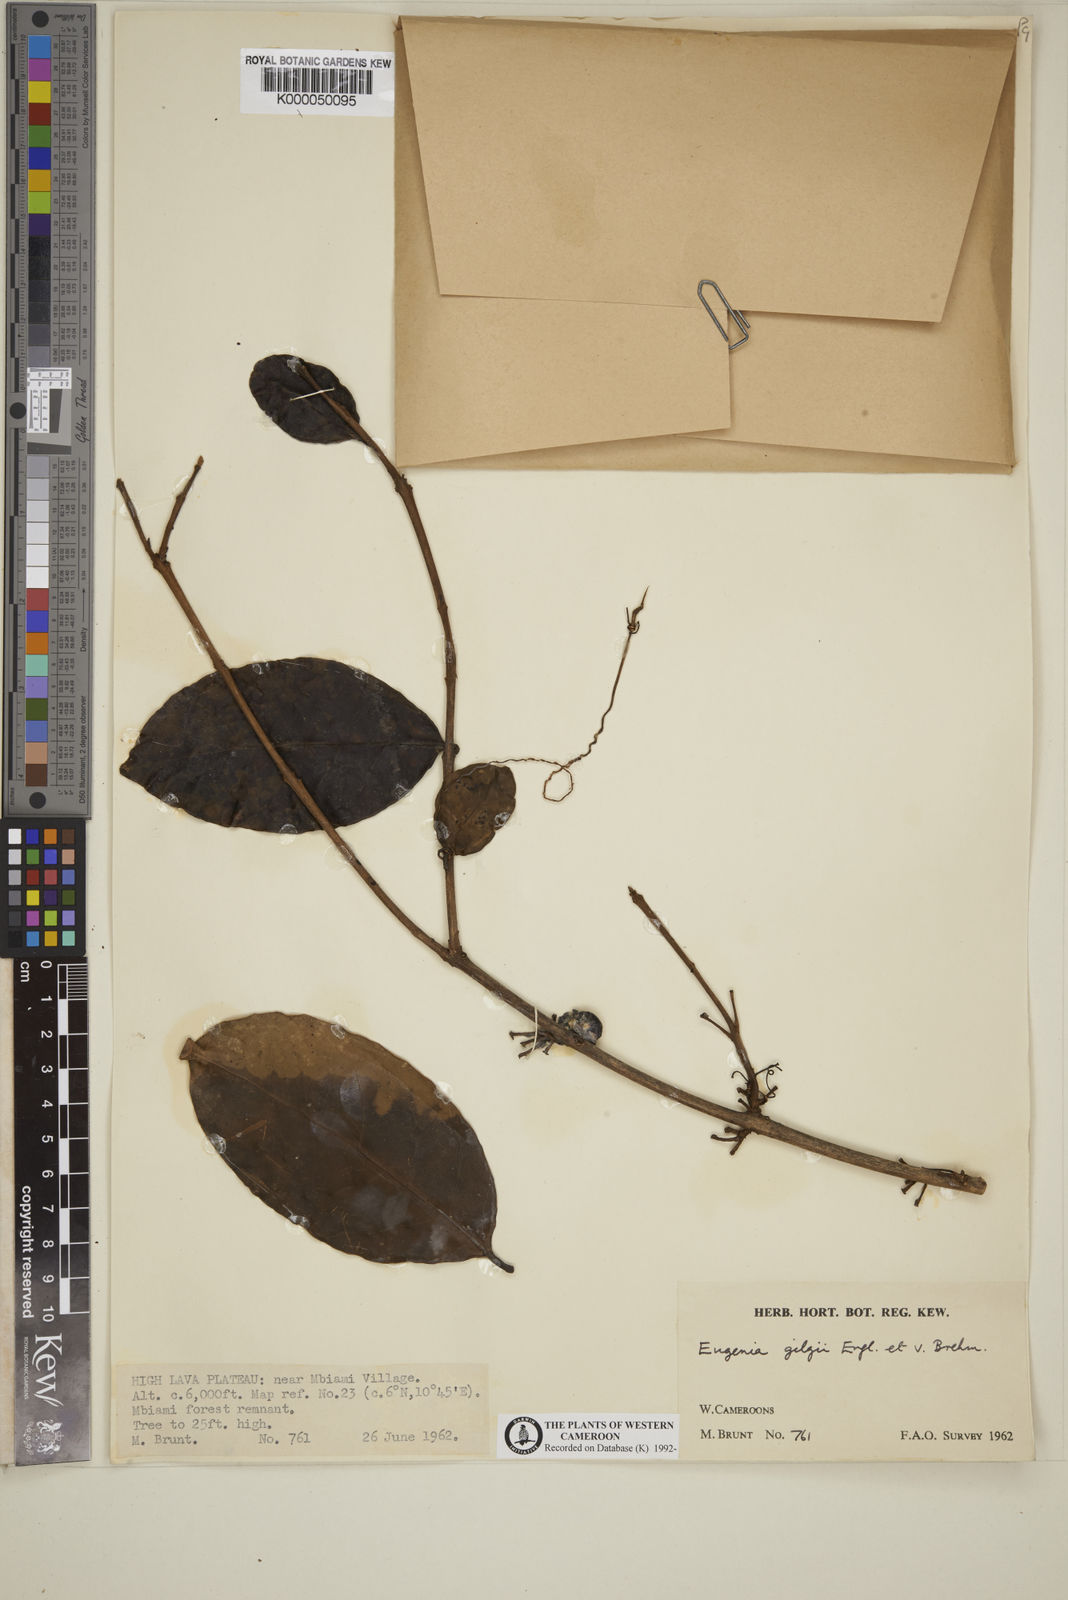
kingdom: Plantae
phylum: Tracheophyta
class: Magnoliopsida
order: Myrtales
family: Myrtaceae
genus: Eugenia
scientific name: Eugenia gilgii
